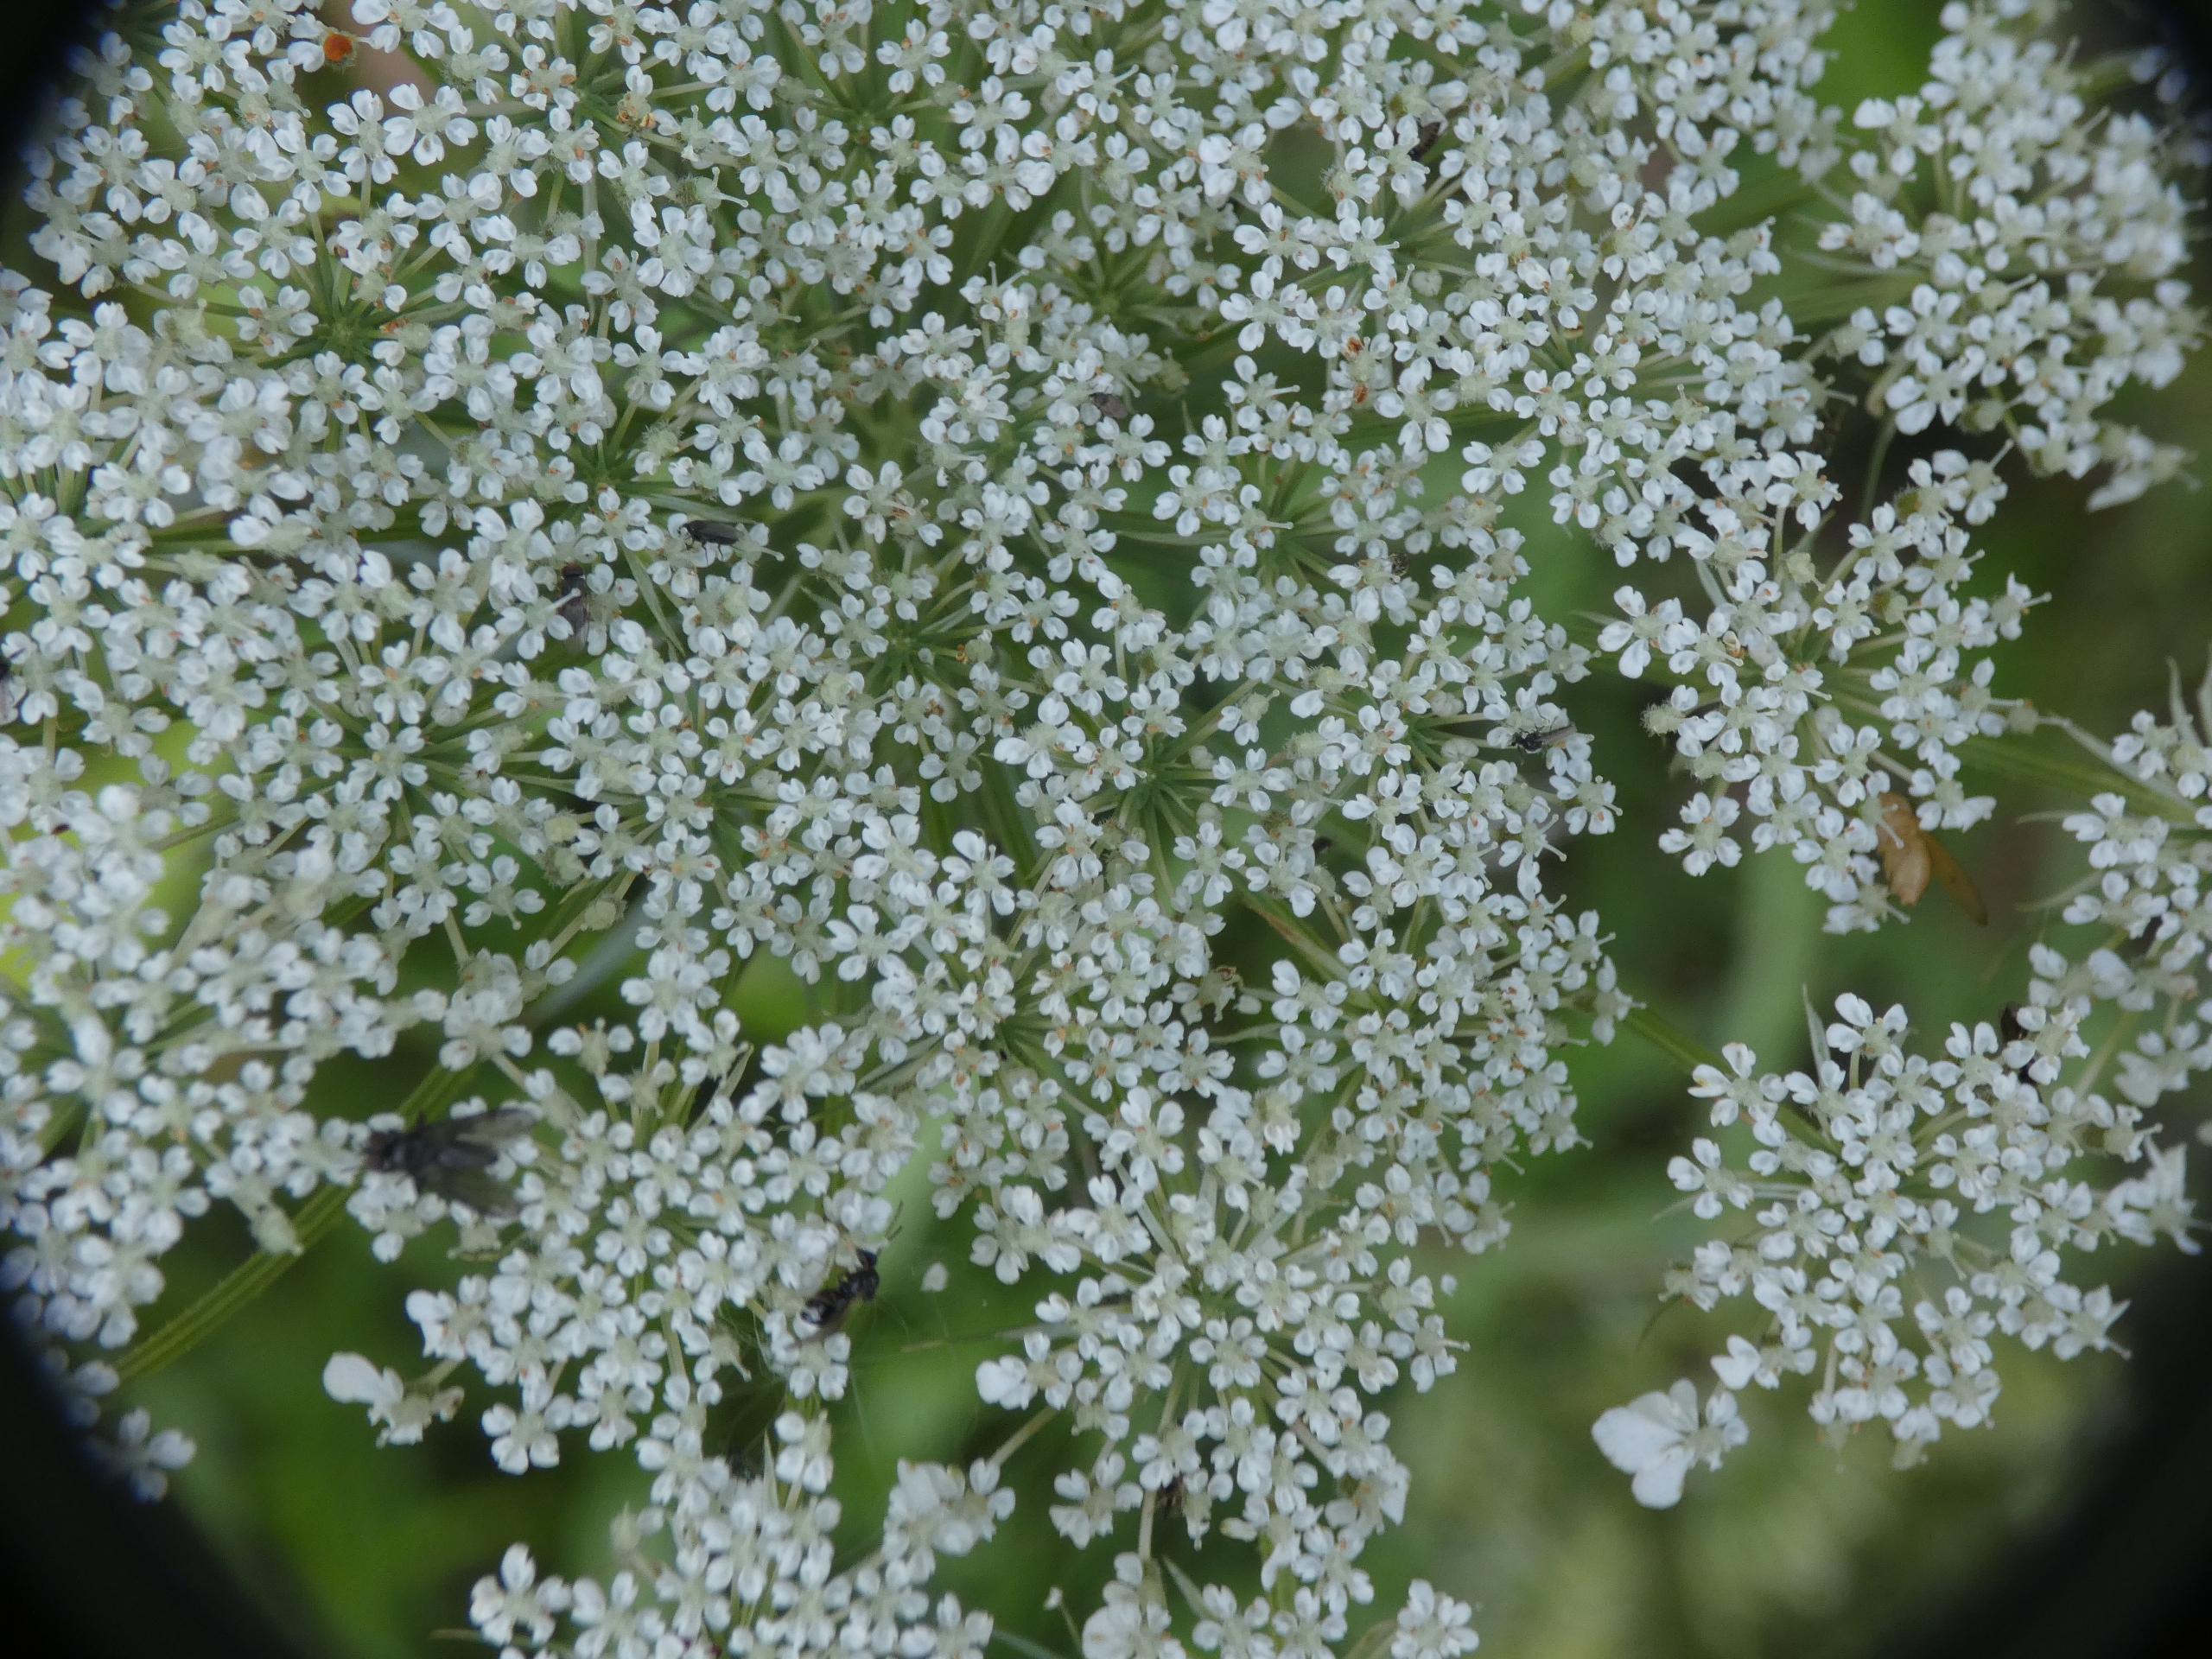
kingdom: Plantae
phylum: Tracheophyta
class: Magnoliopsida
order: Apiales
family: Apiaceae
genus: Daucus
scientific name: Daucus carota
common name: Vild gulerod
